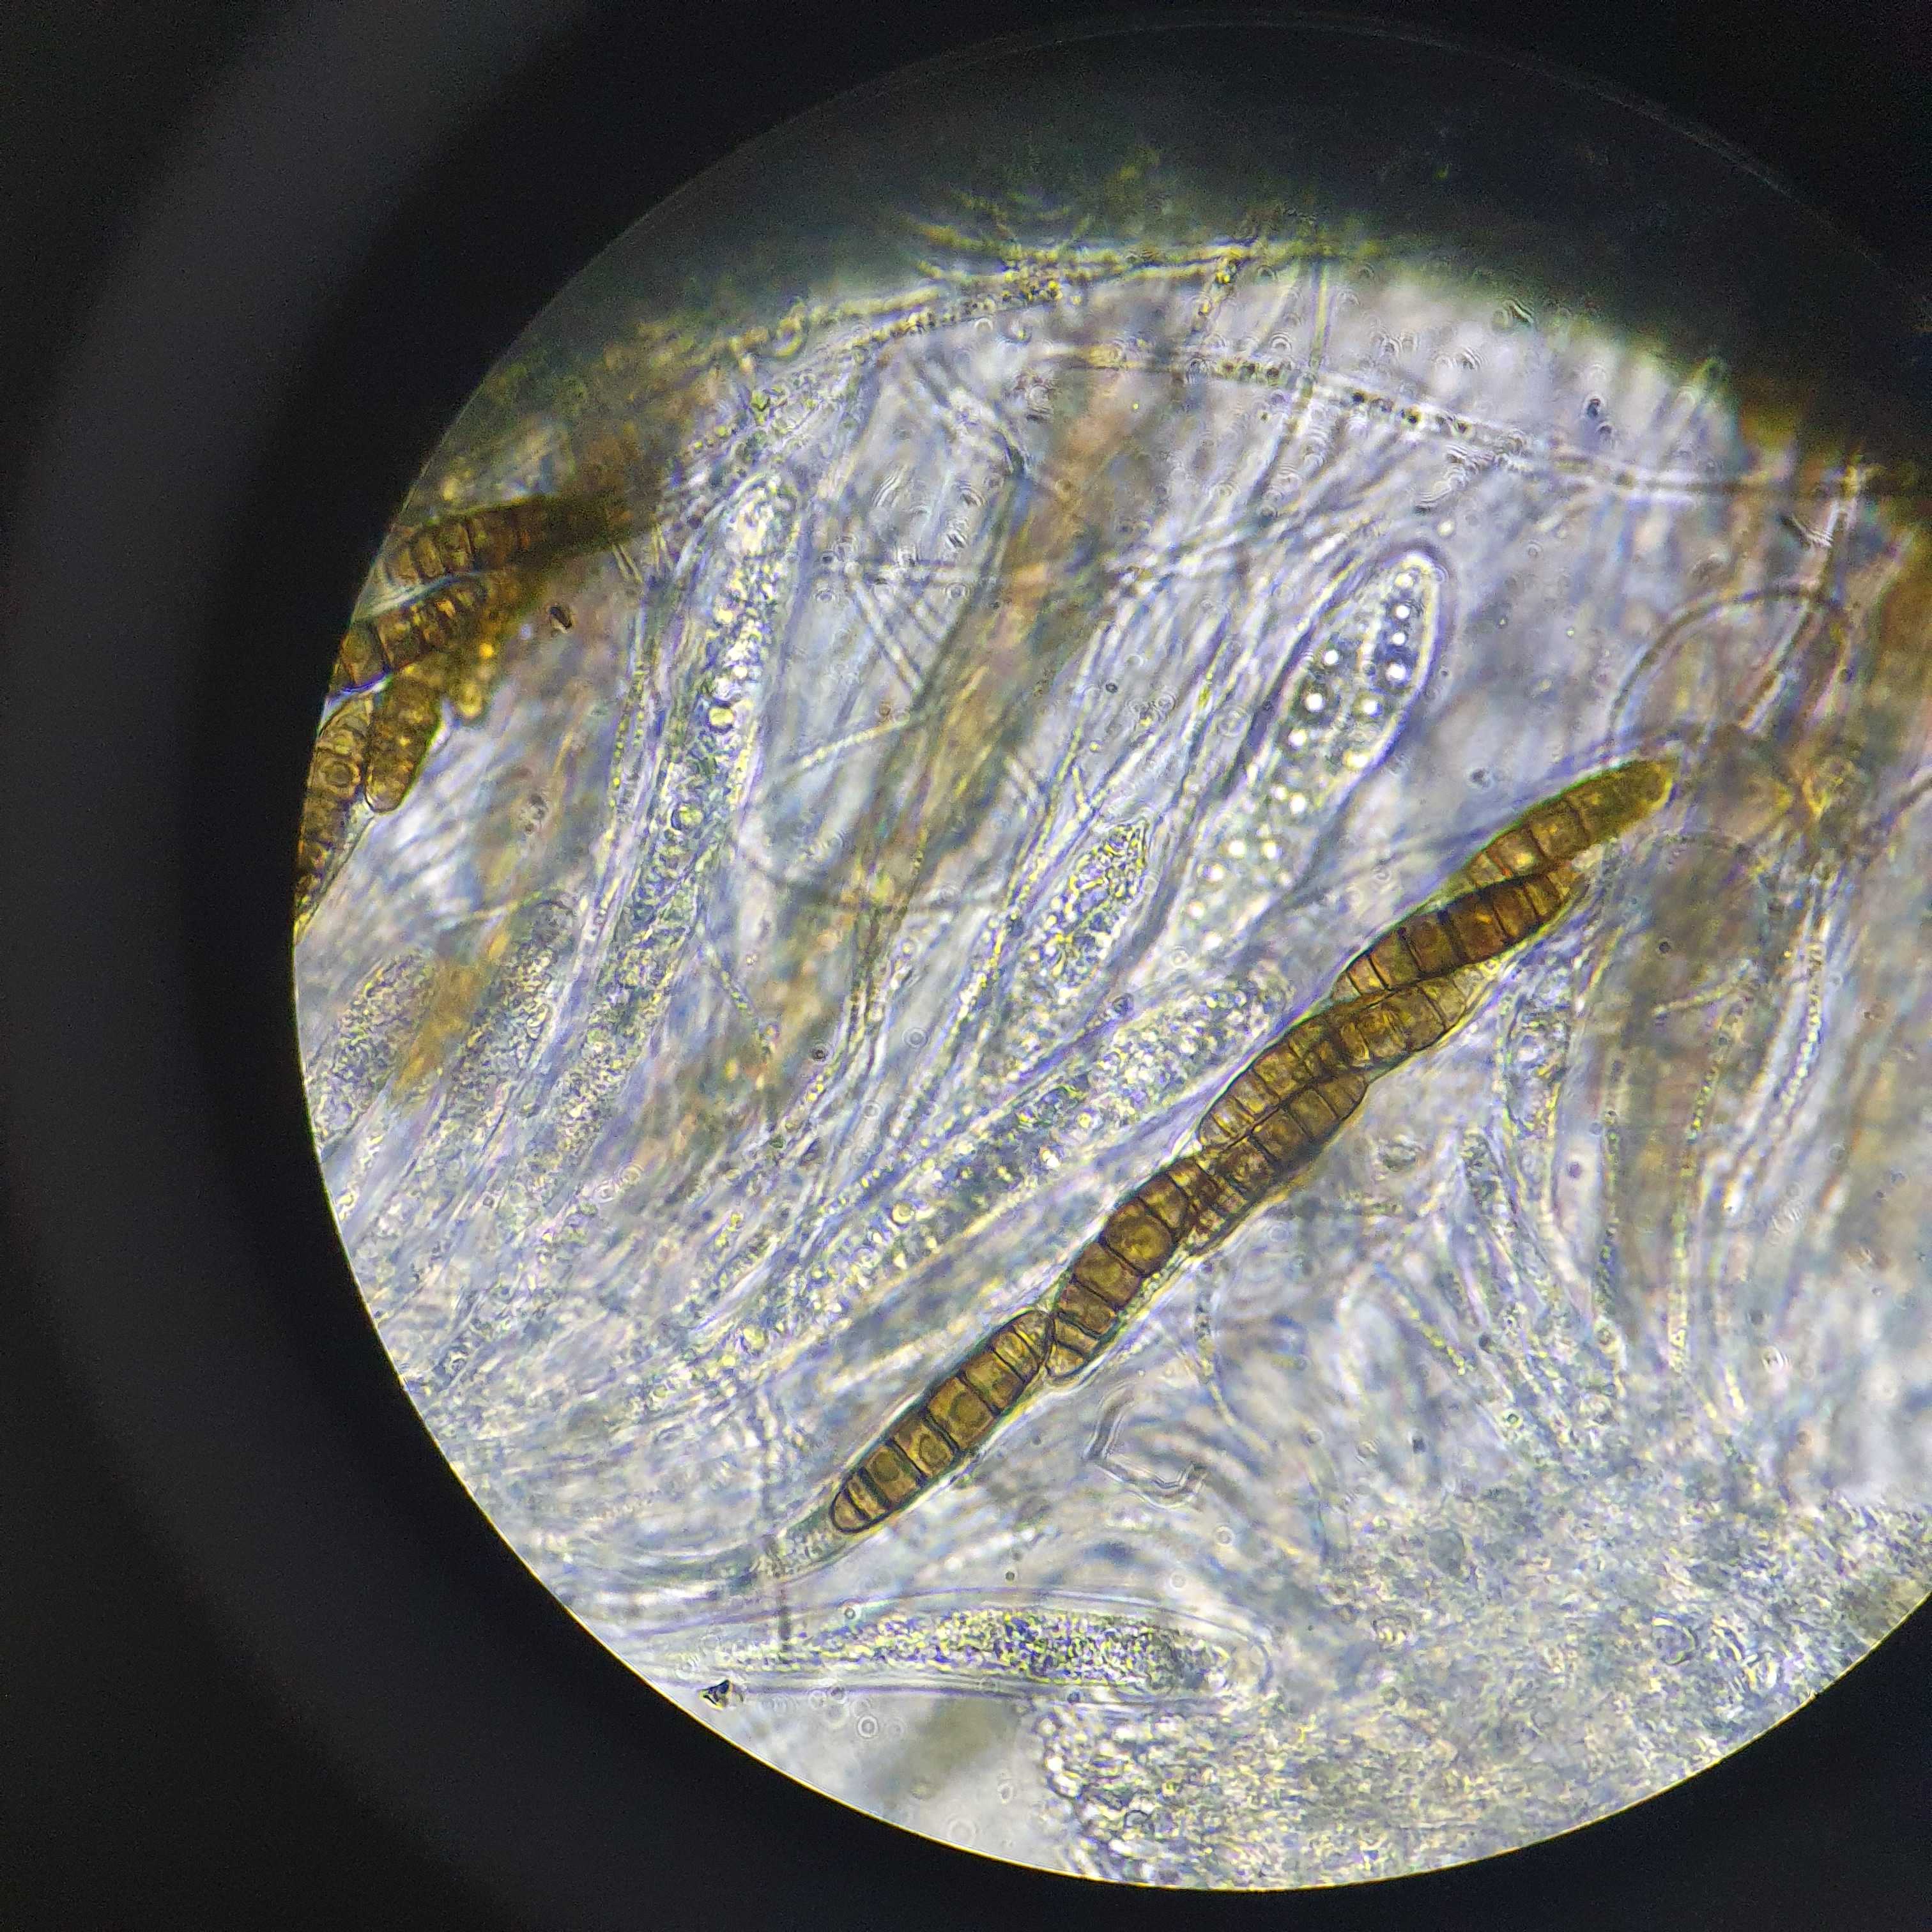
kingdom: Fungi
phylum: Ascomycota
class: Dothideomycetes
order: Pleosporales
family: Thyridariaceae
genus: Thyridaria
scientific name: Thyridaria macrostomoides
